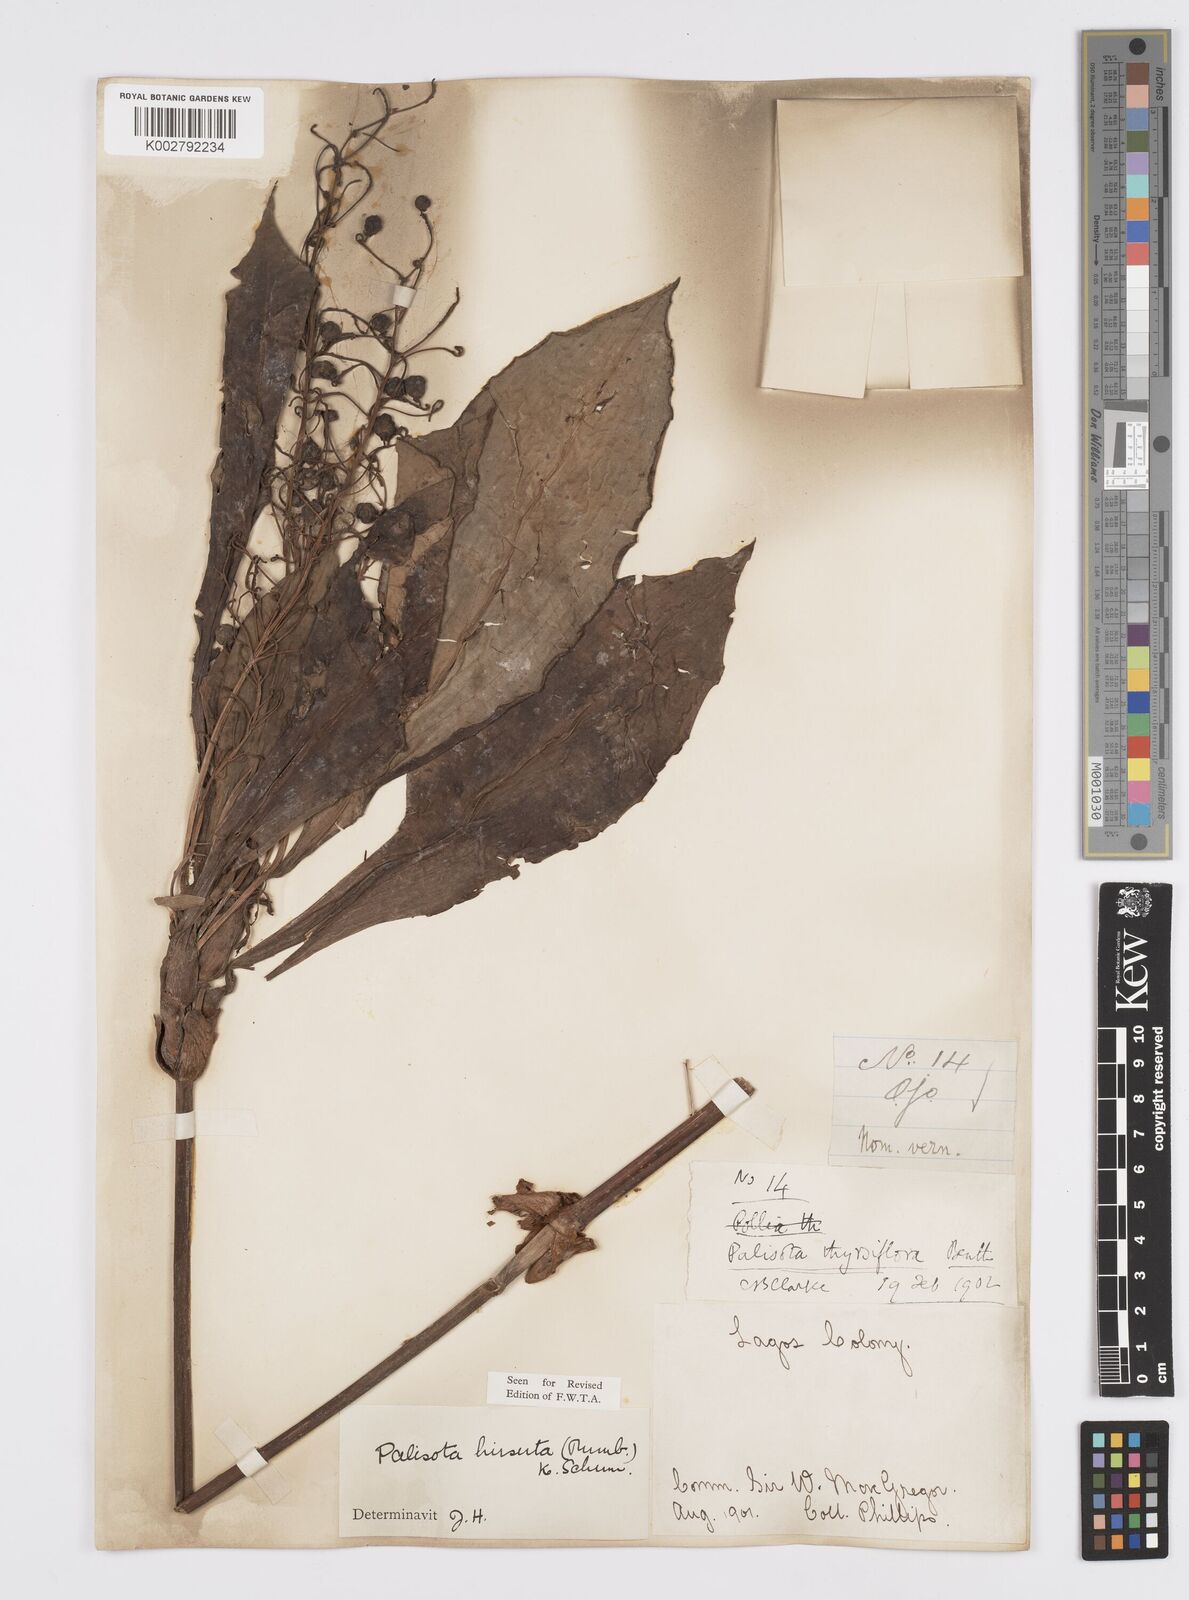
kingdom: Plantae
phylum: Tracheophyta
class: Liliopsida
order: Commelinales
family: Commelinaceae
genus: Palisota
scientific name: Palisota hirsuta
